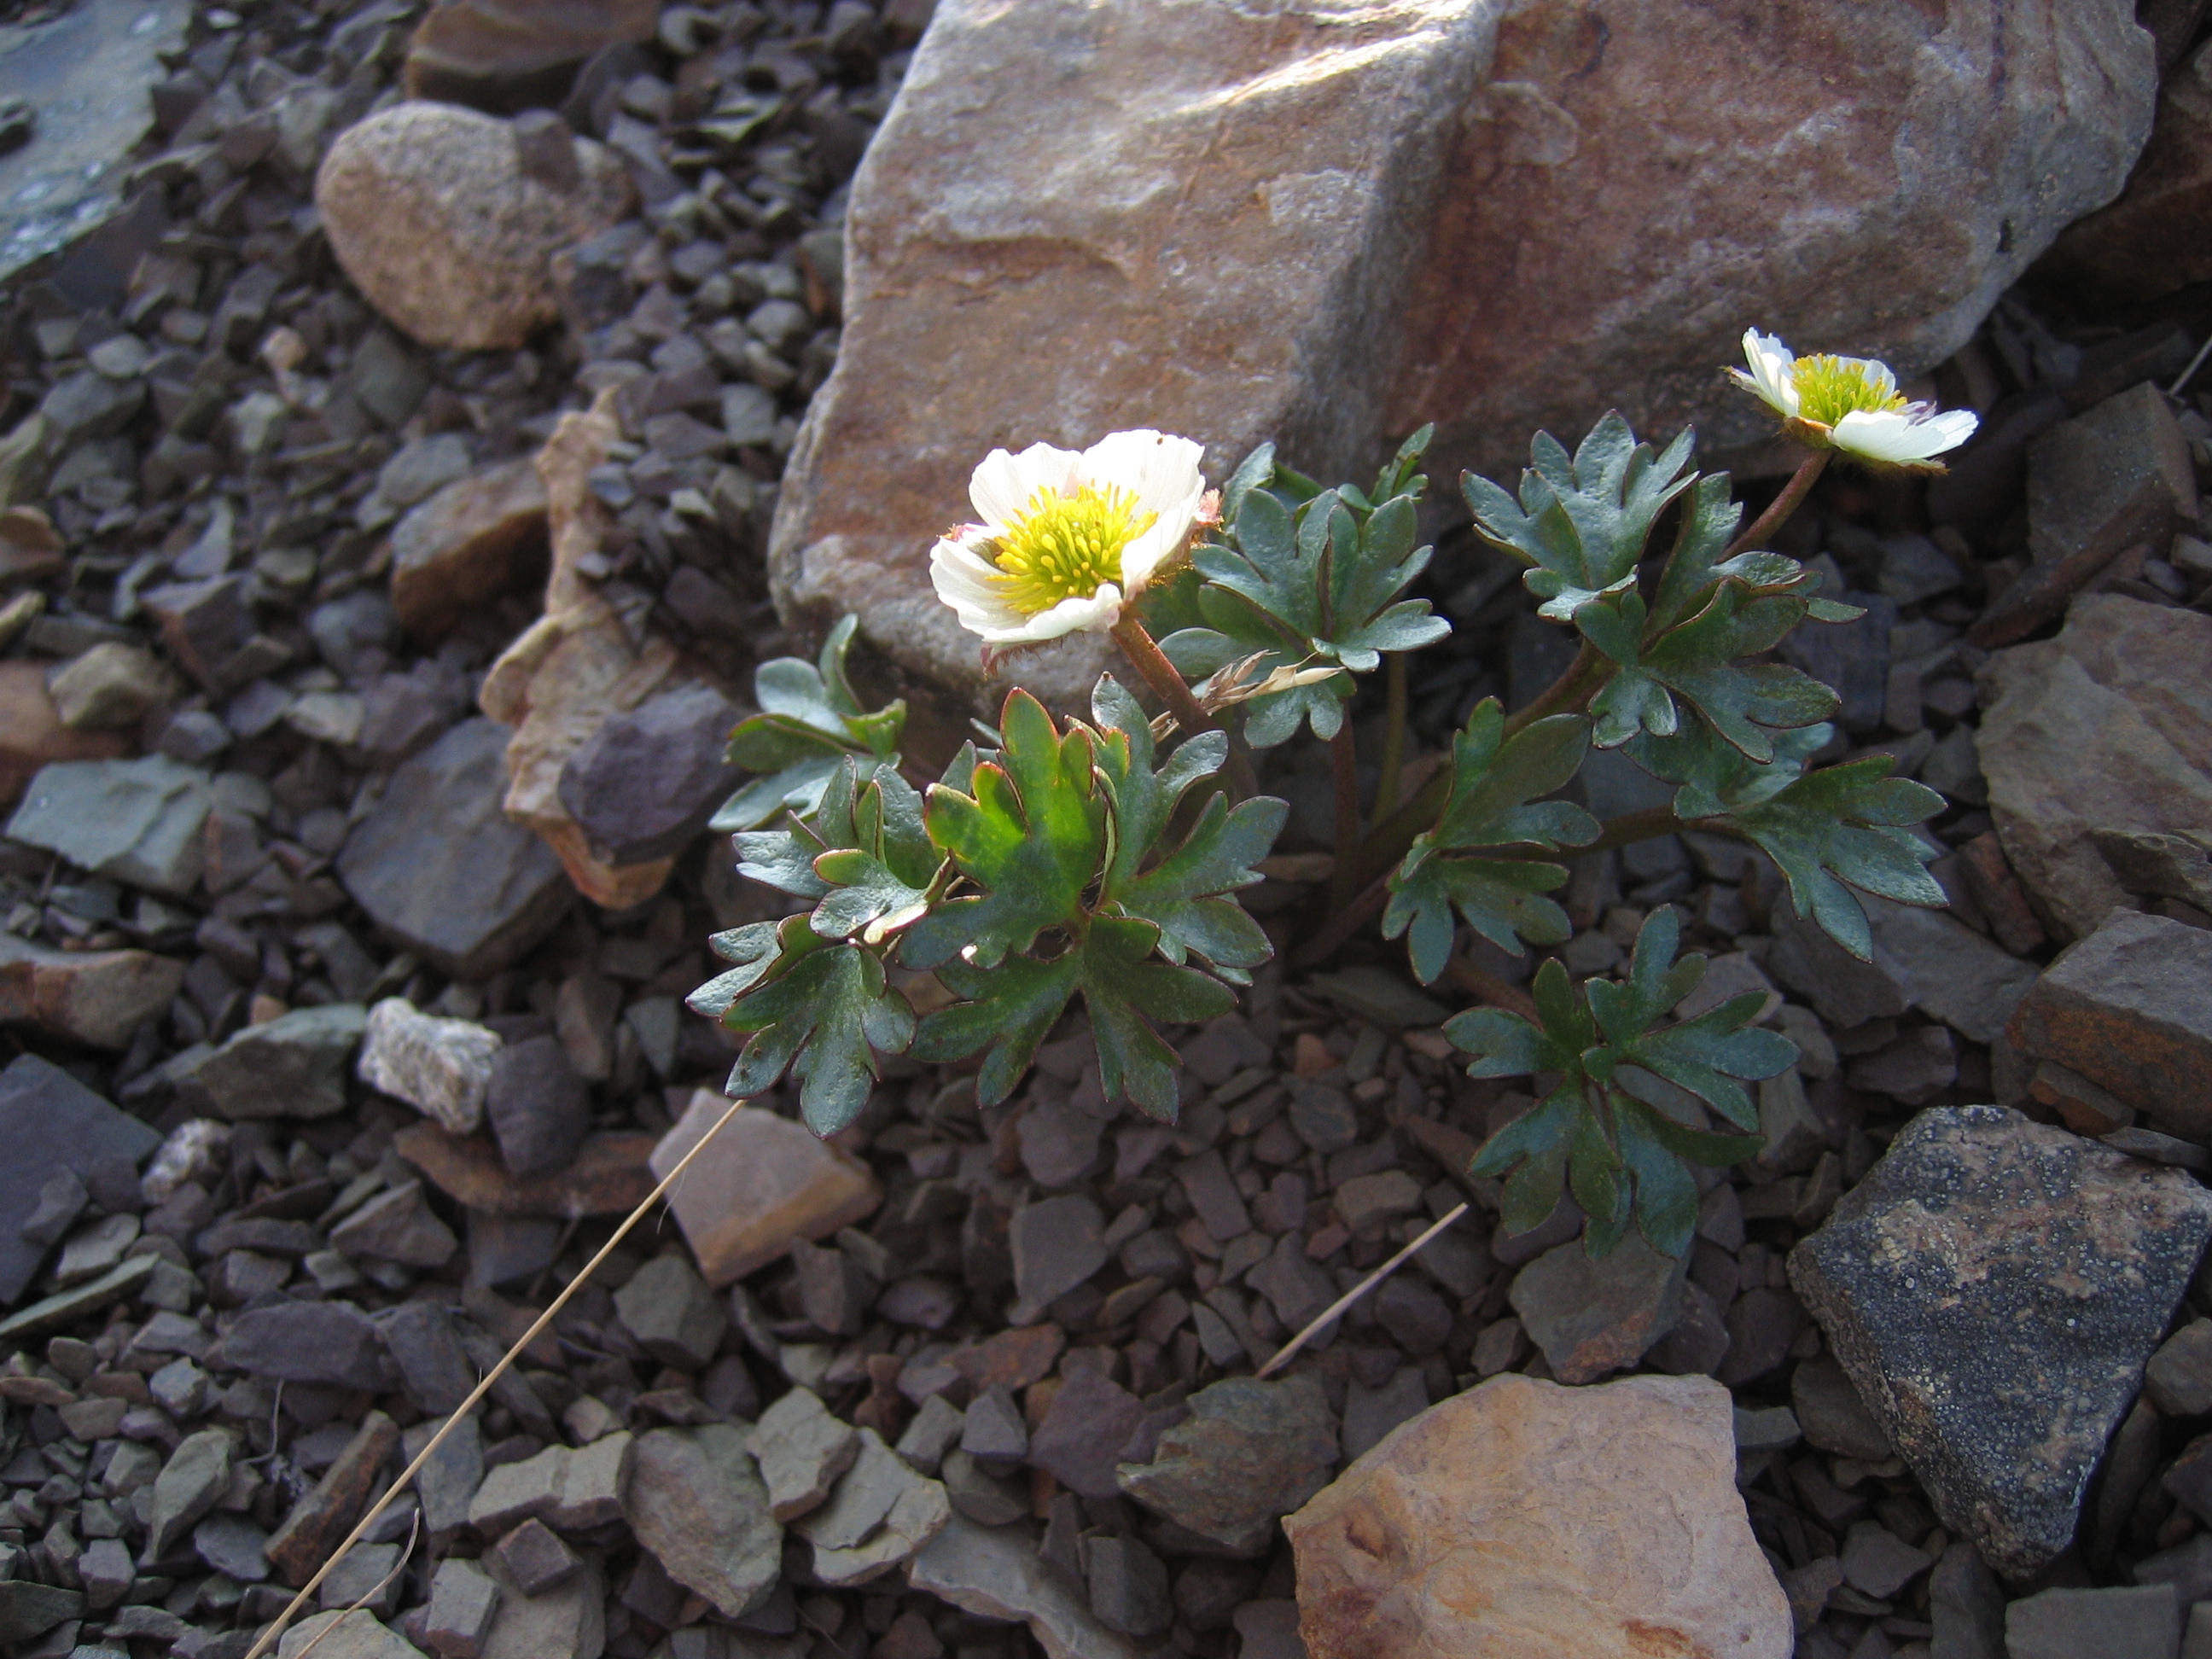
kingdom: Plantae
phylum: Tracheophyta
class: Magnoliopsida
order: Ranunculales
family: Ranunculaceae
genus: Ranunculus
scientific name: Ranunculus glacialis
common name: Glacier buttercup
